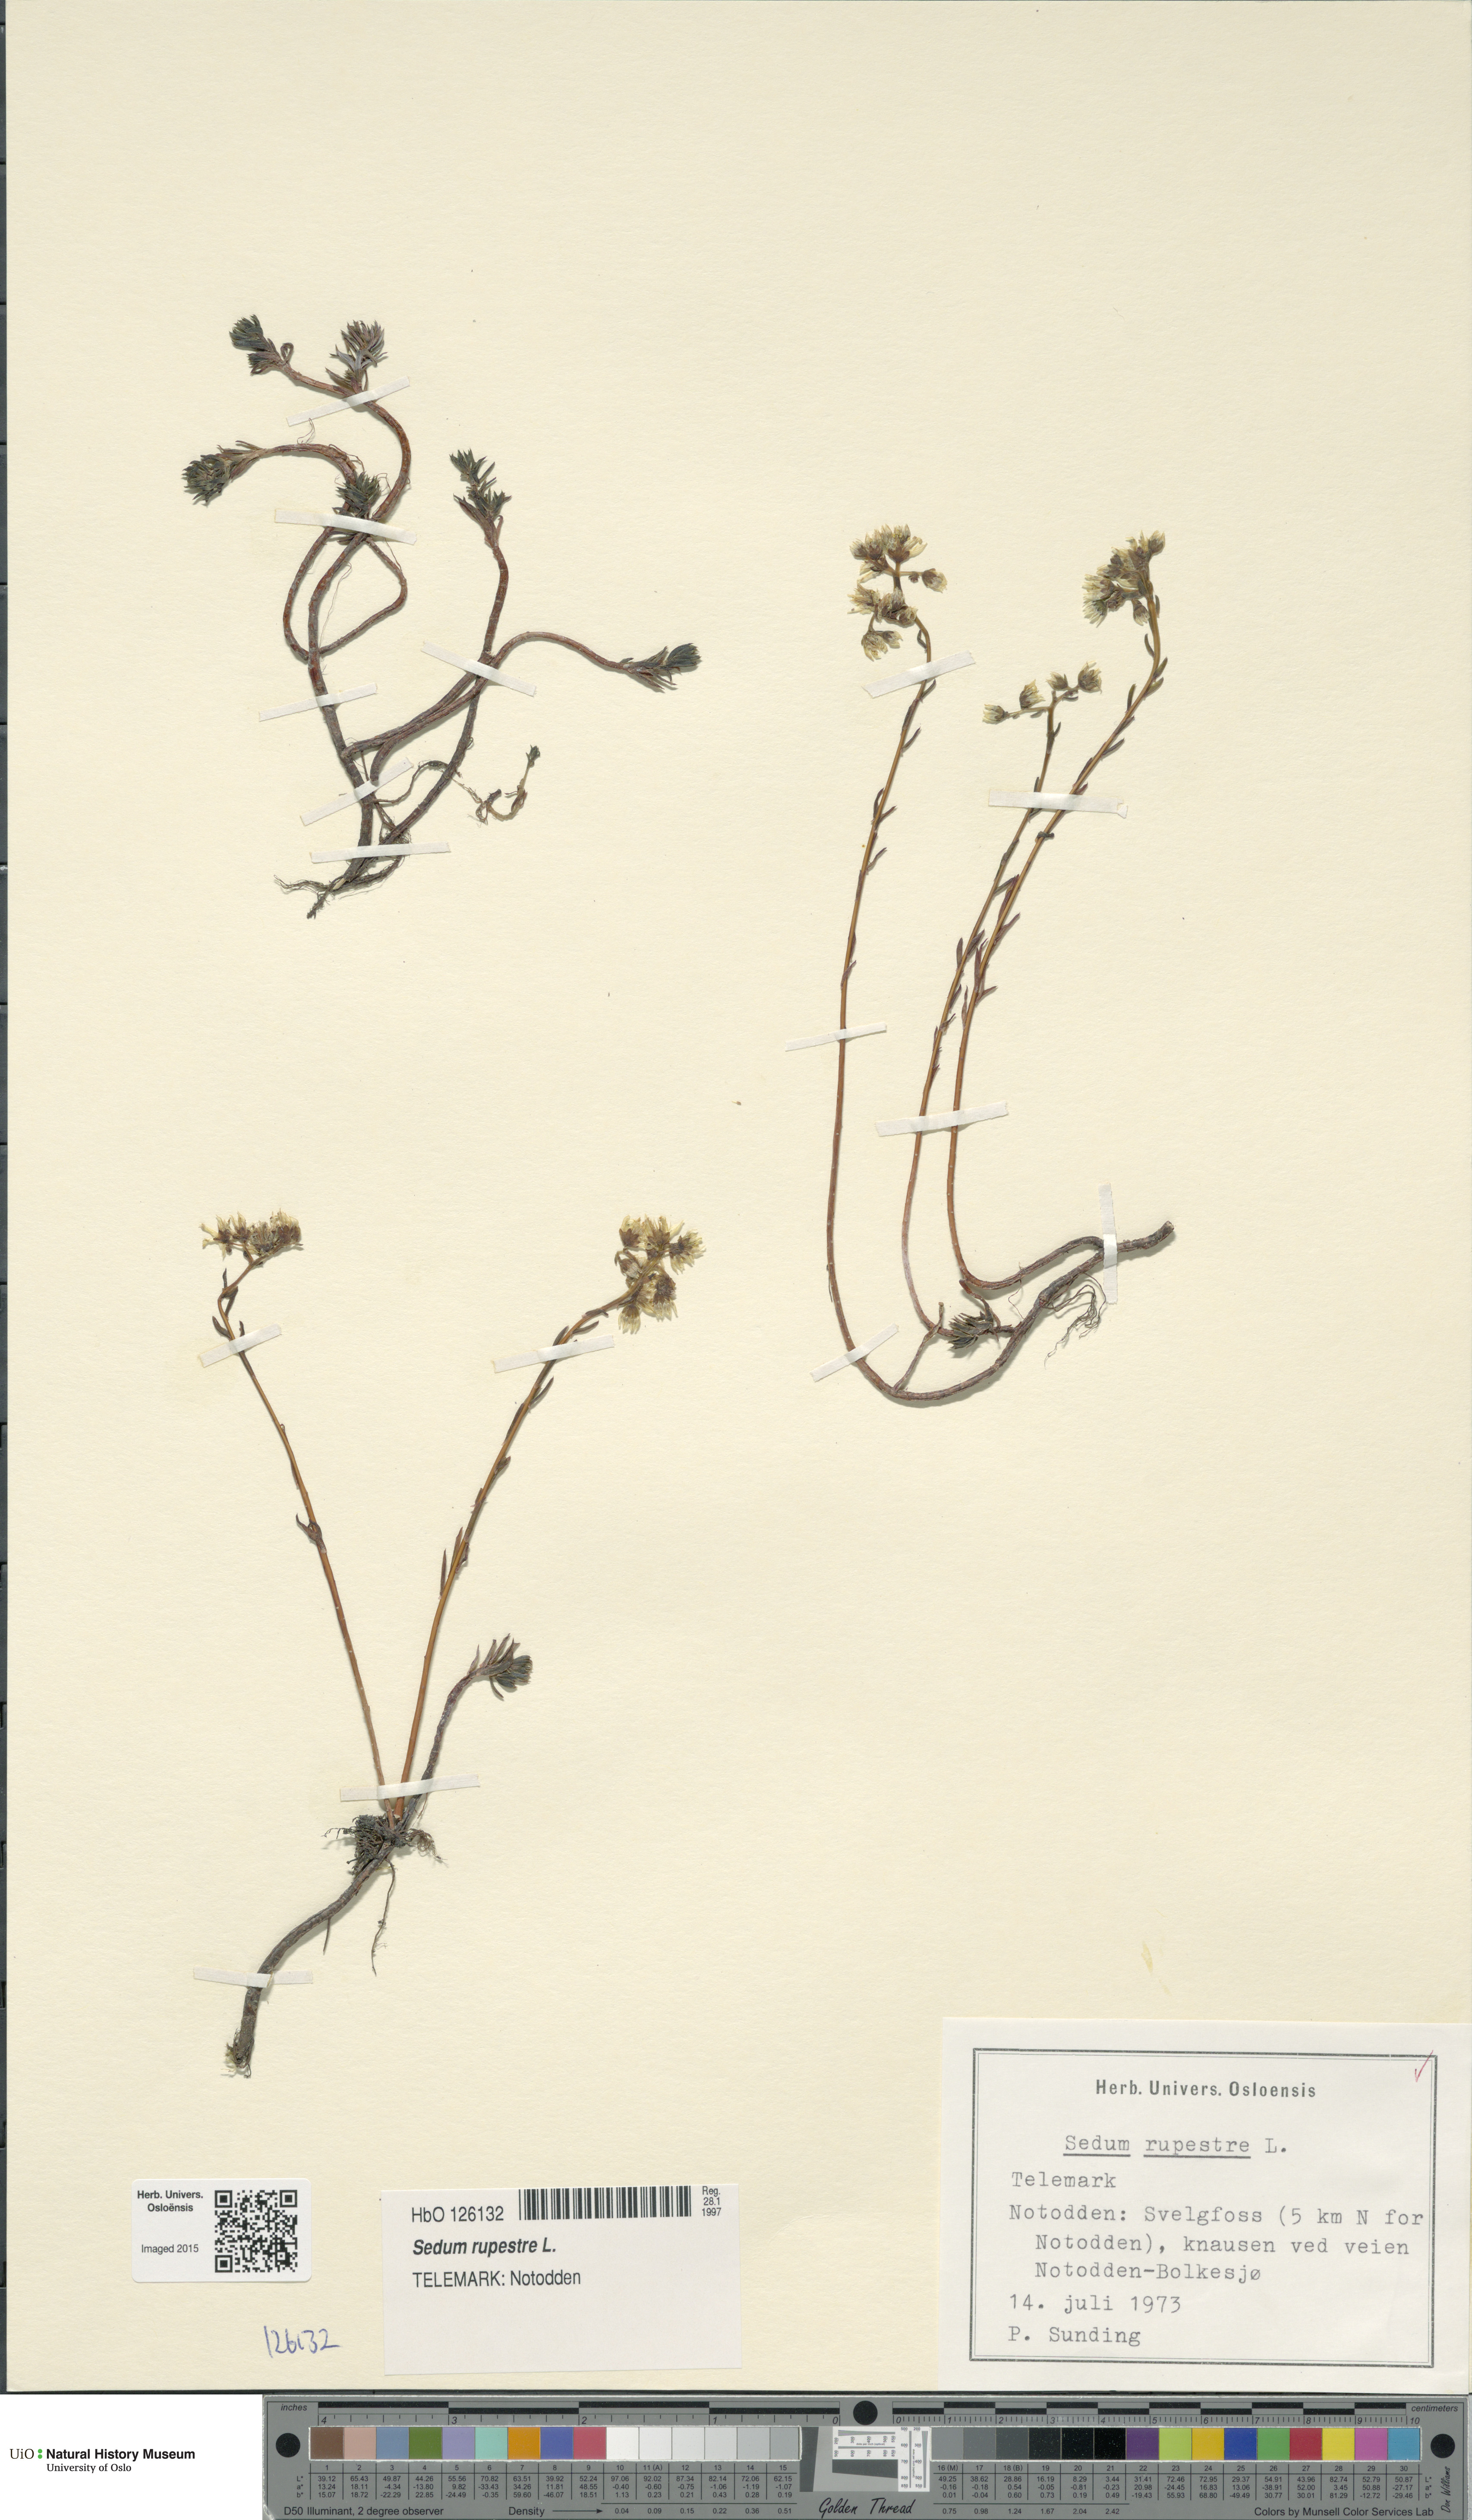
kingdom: Plantae
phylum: Tracheophyta
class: Magnoliopsida
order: Saxifragales
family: Crassulaceae
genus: Petrosedum
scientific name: Petrosedum rupestre
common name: Jenny's stonecrop
